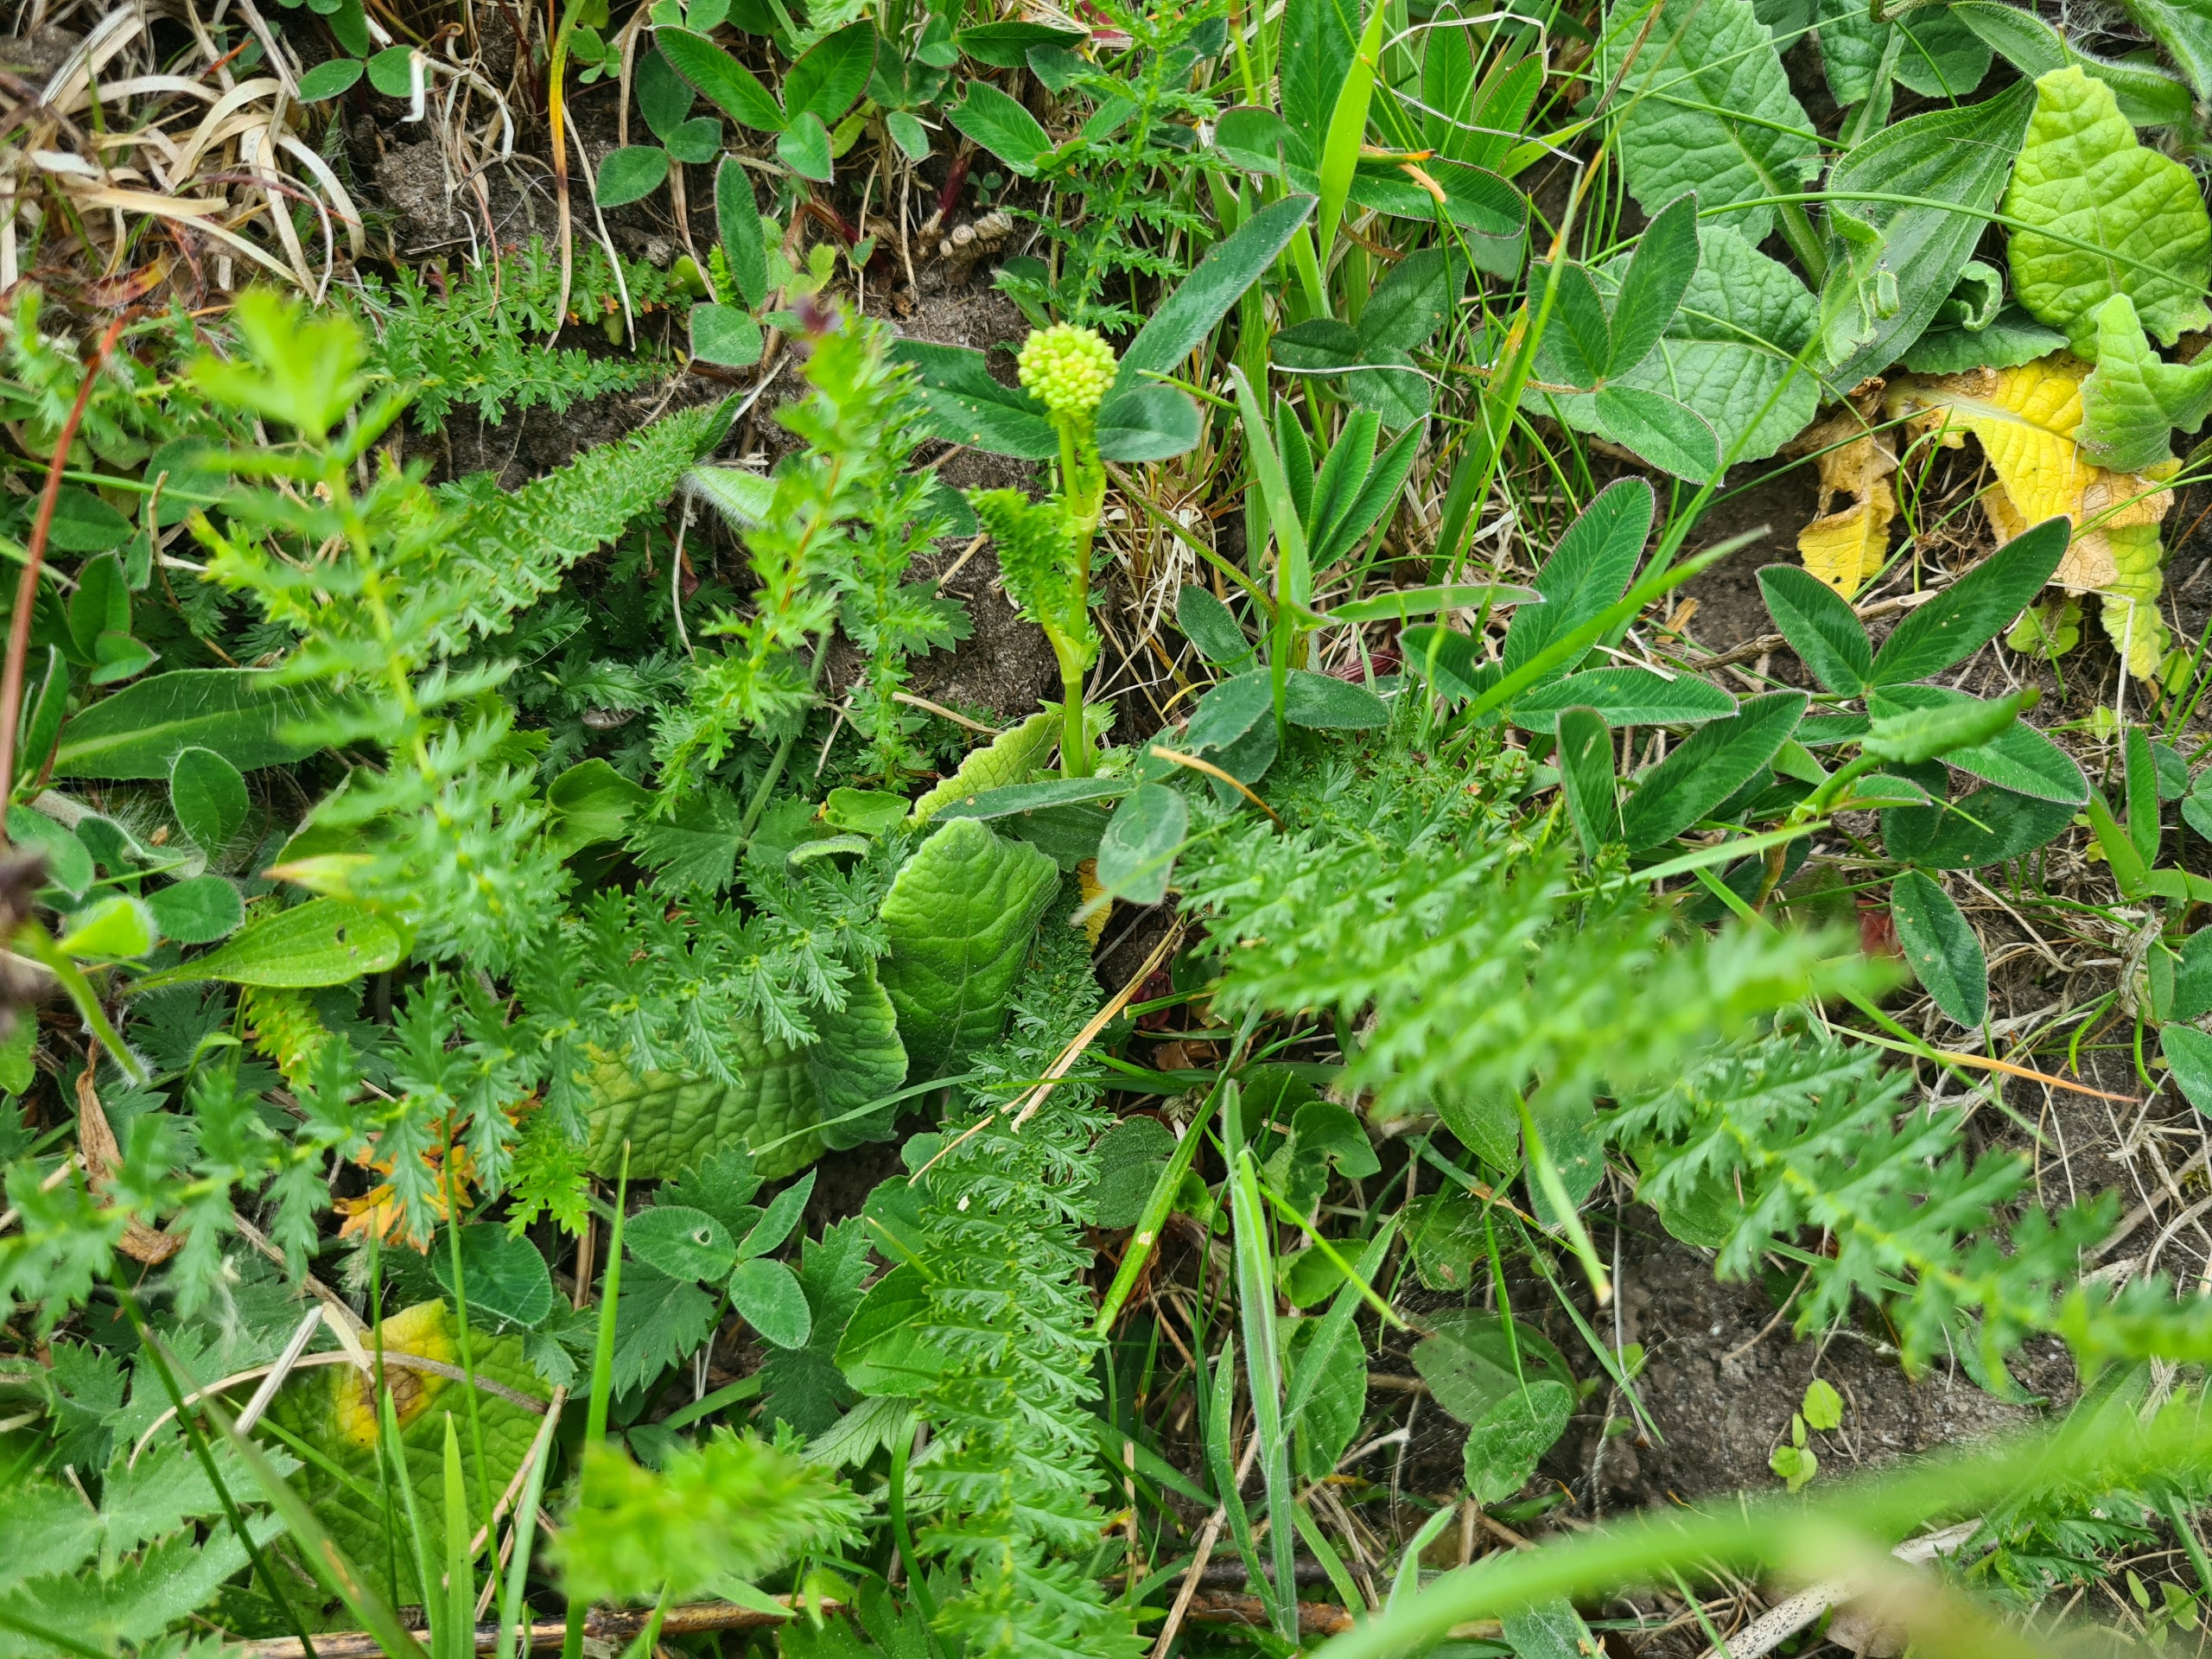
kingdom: Plantae
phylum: Tracheophyta
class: Magnoliopsida
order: Rosales
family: Rosaceae
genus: Filipendula
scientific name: Filipendula vulgaris
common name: Knoldet mjødurt
